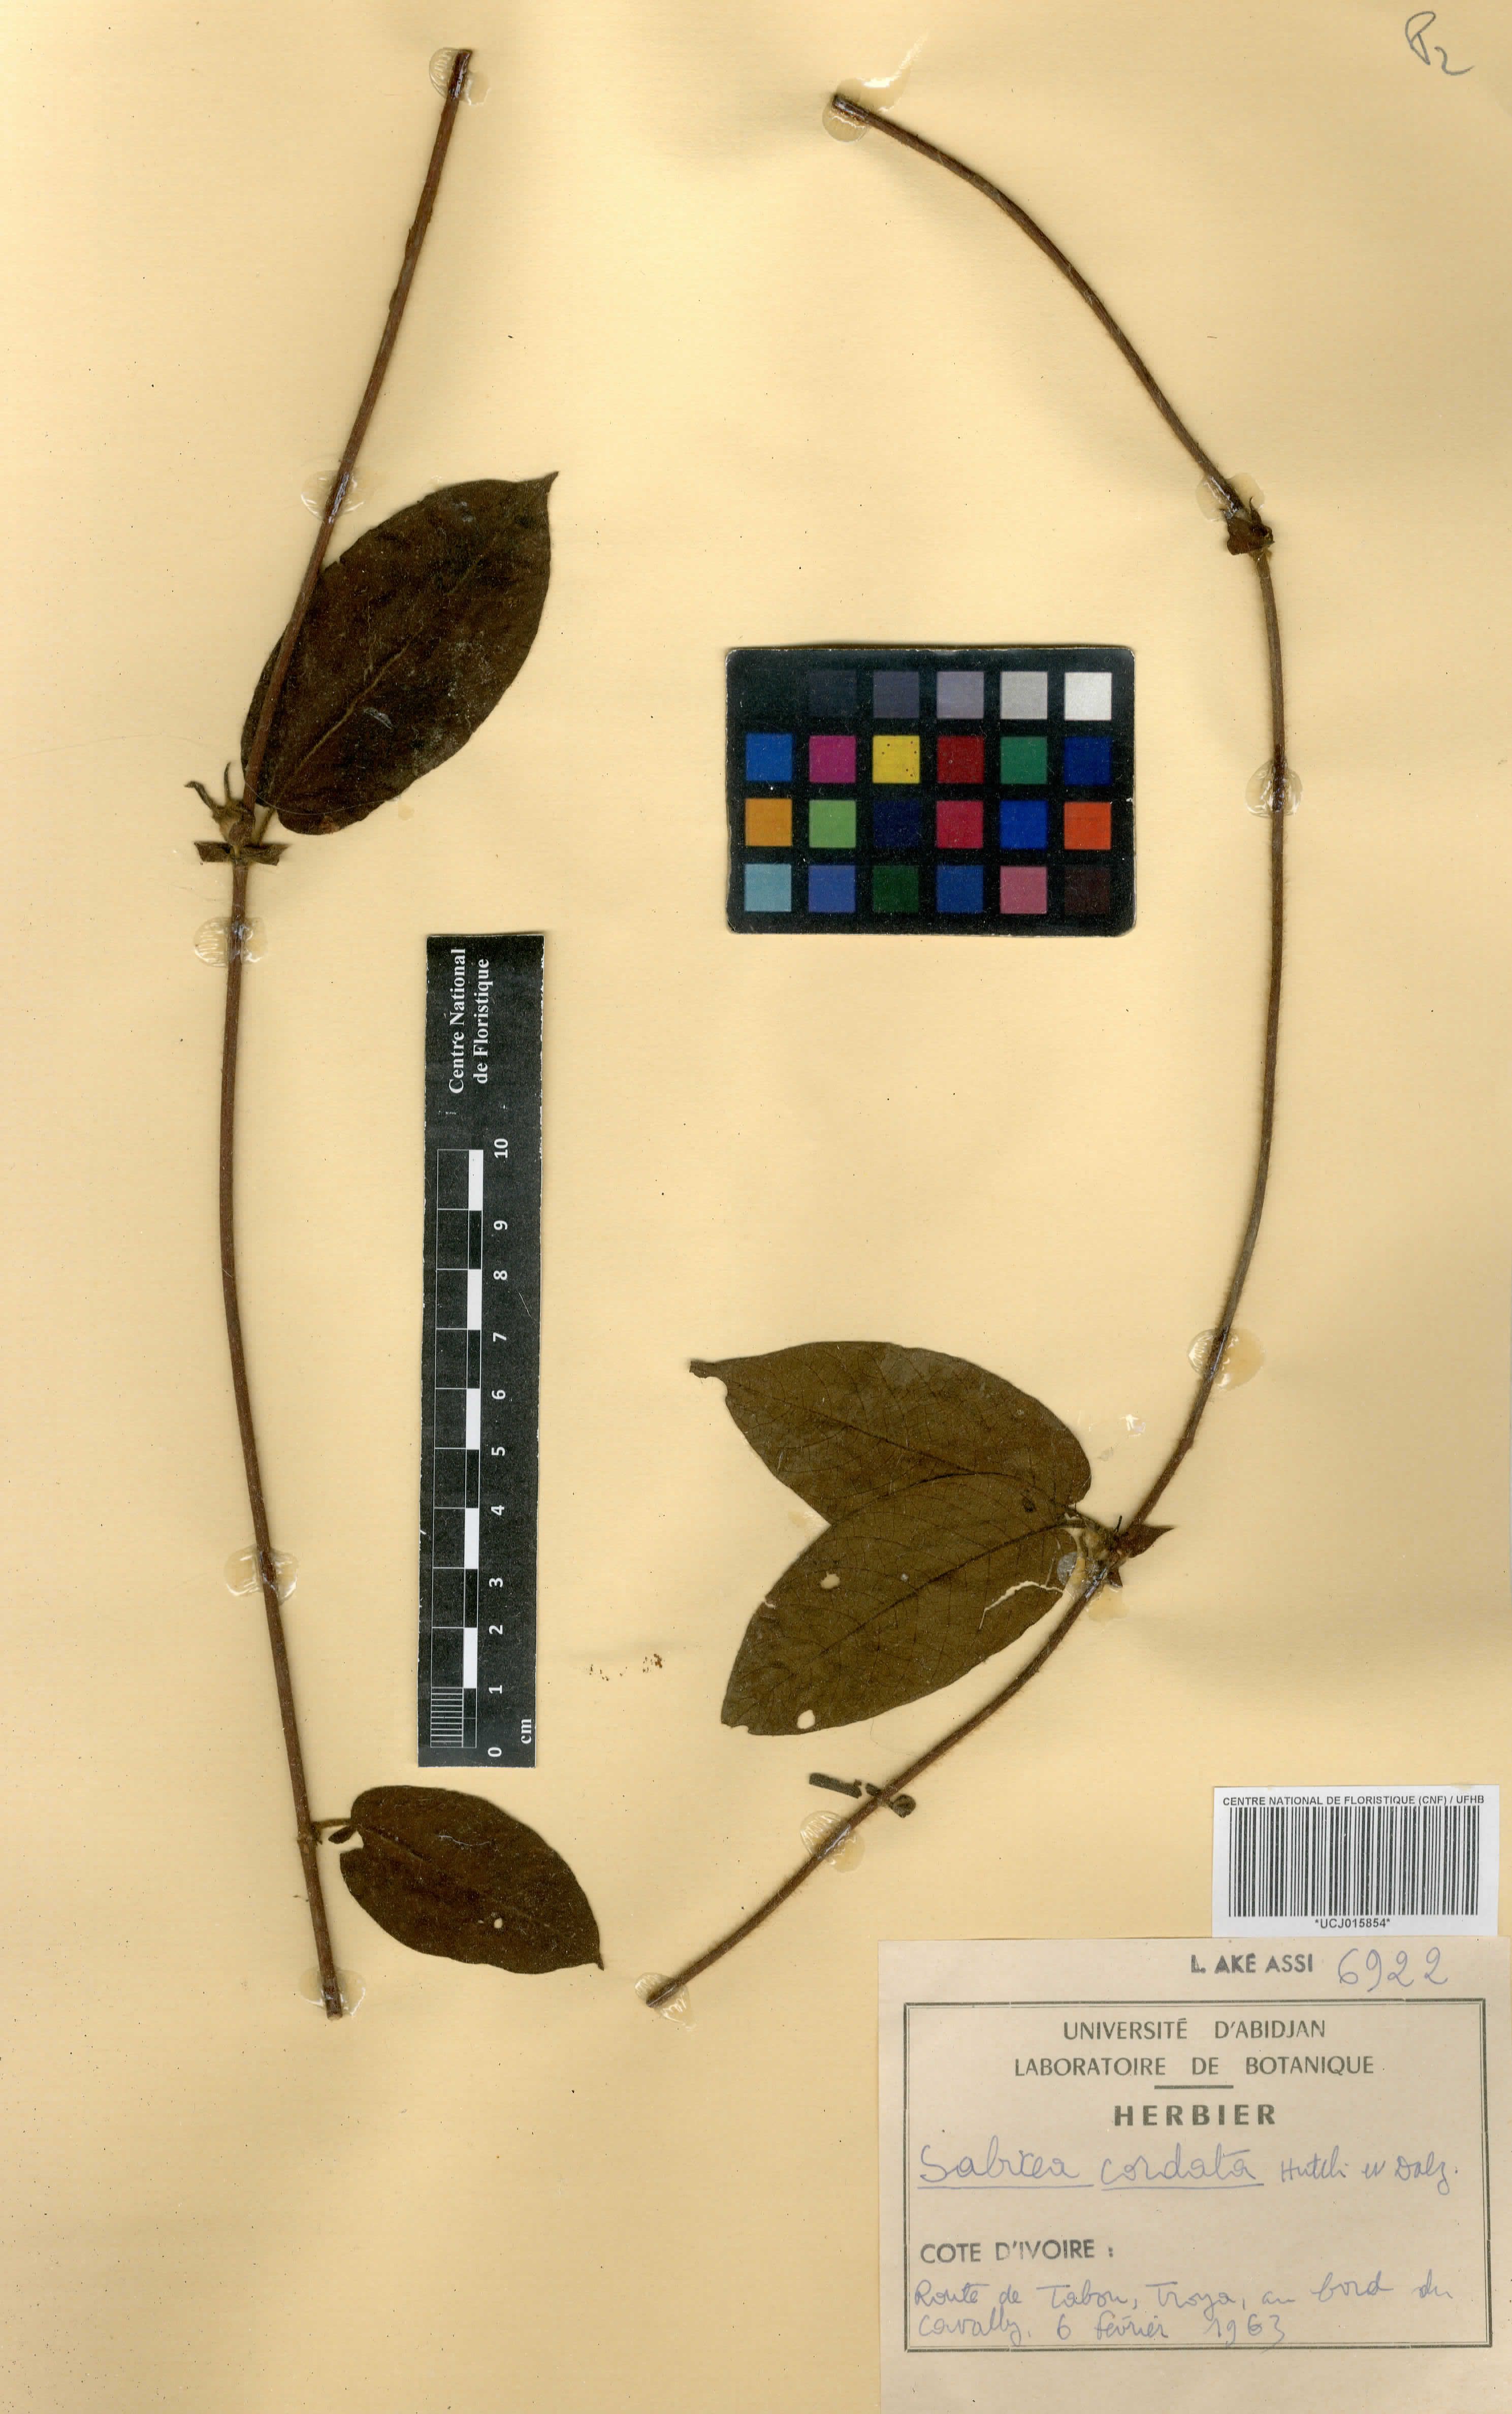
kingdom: Plantae
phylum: Tracheophyta
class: Magnoliopsida
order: Gentianales
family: Rubiaceae
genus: Sabicea
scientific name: Sabicea cordata
